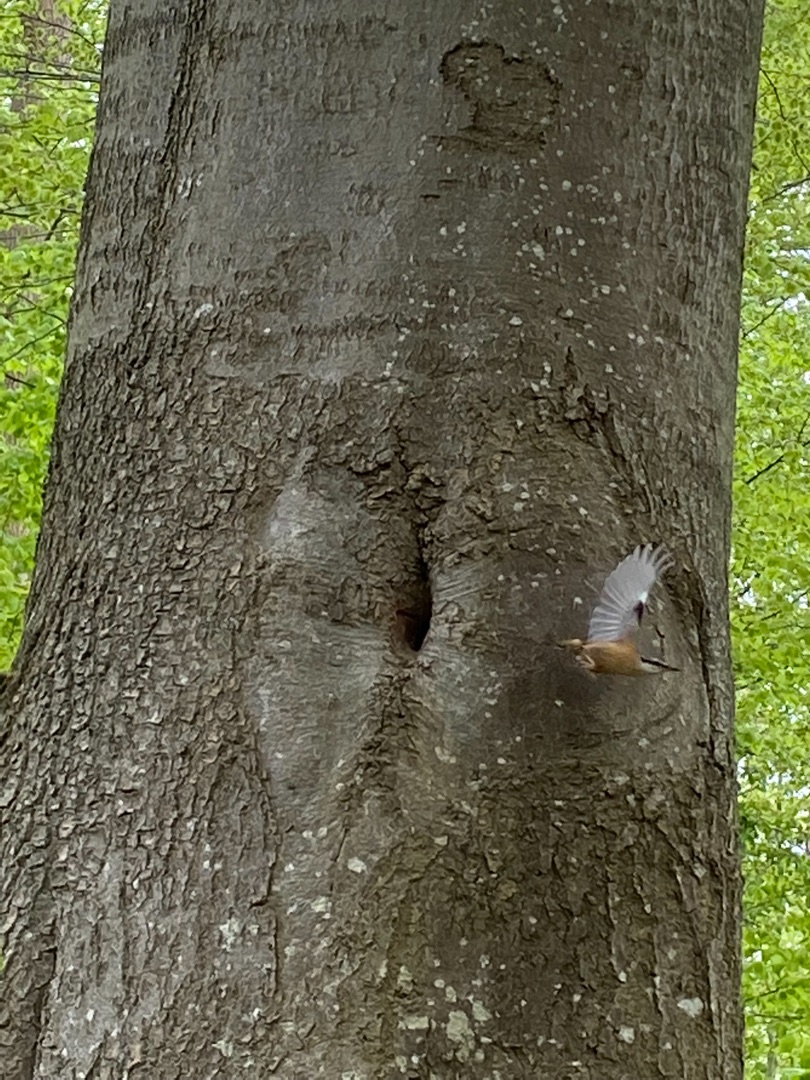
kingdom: Animalia
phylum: Chordata
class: Aves
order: Passeriformes
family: Sittidae
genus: Sitta
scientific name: Sitta europaea
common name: Spætmejse
